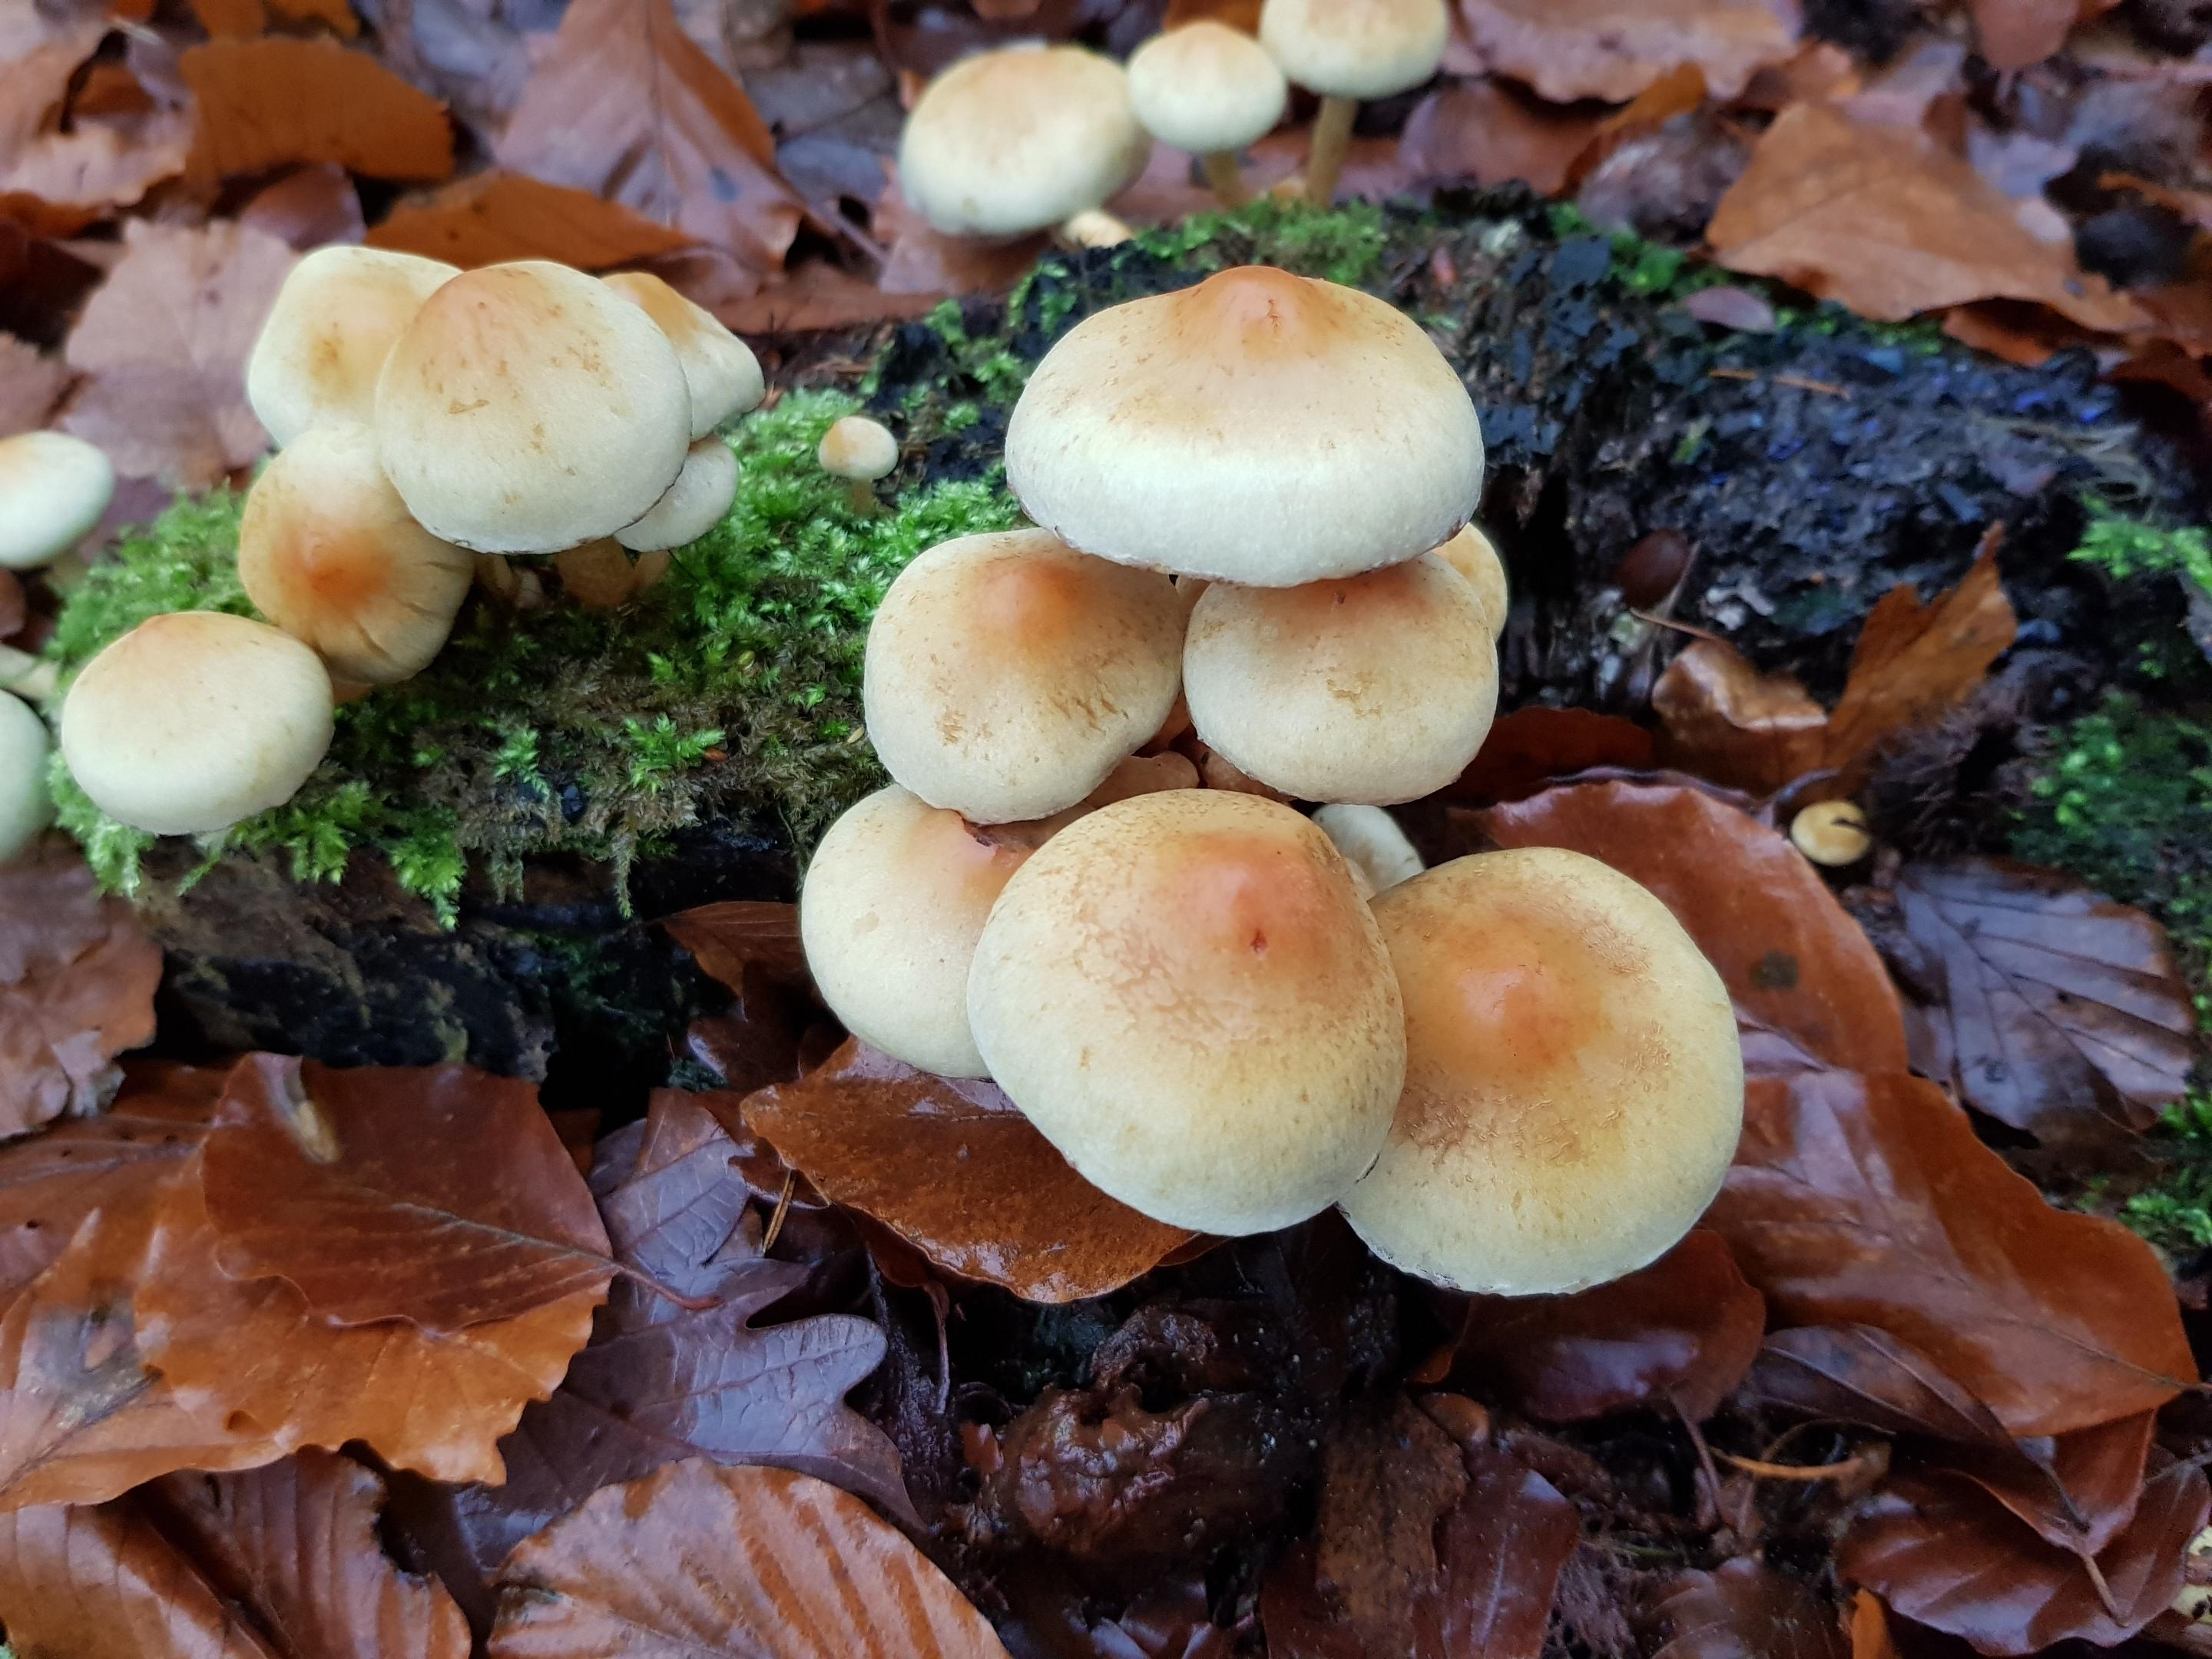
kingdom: Fungi
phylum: Basidiomycota
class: Agaricomycetes
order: Agaricales
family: Strophariaceae
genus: Hypholoma
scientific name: Hypholoma fasciculare
